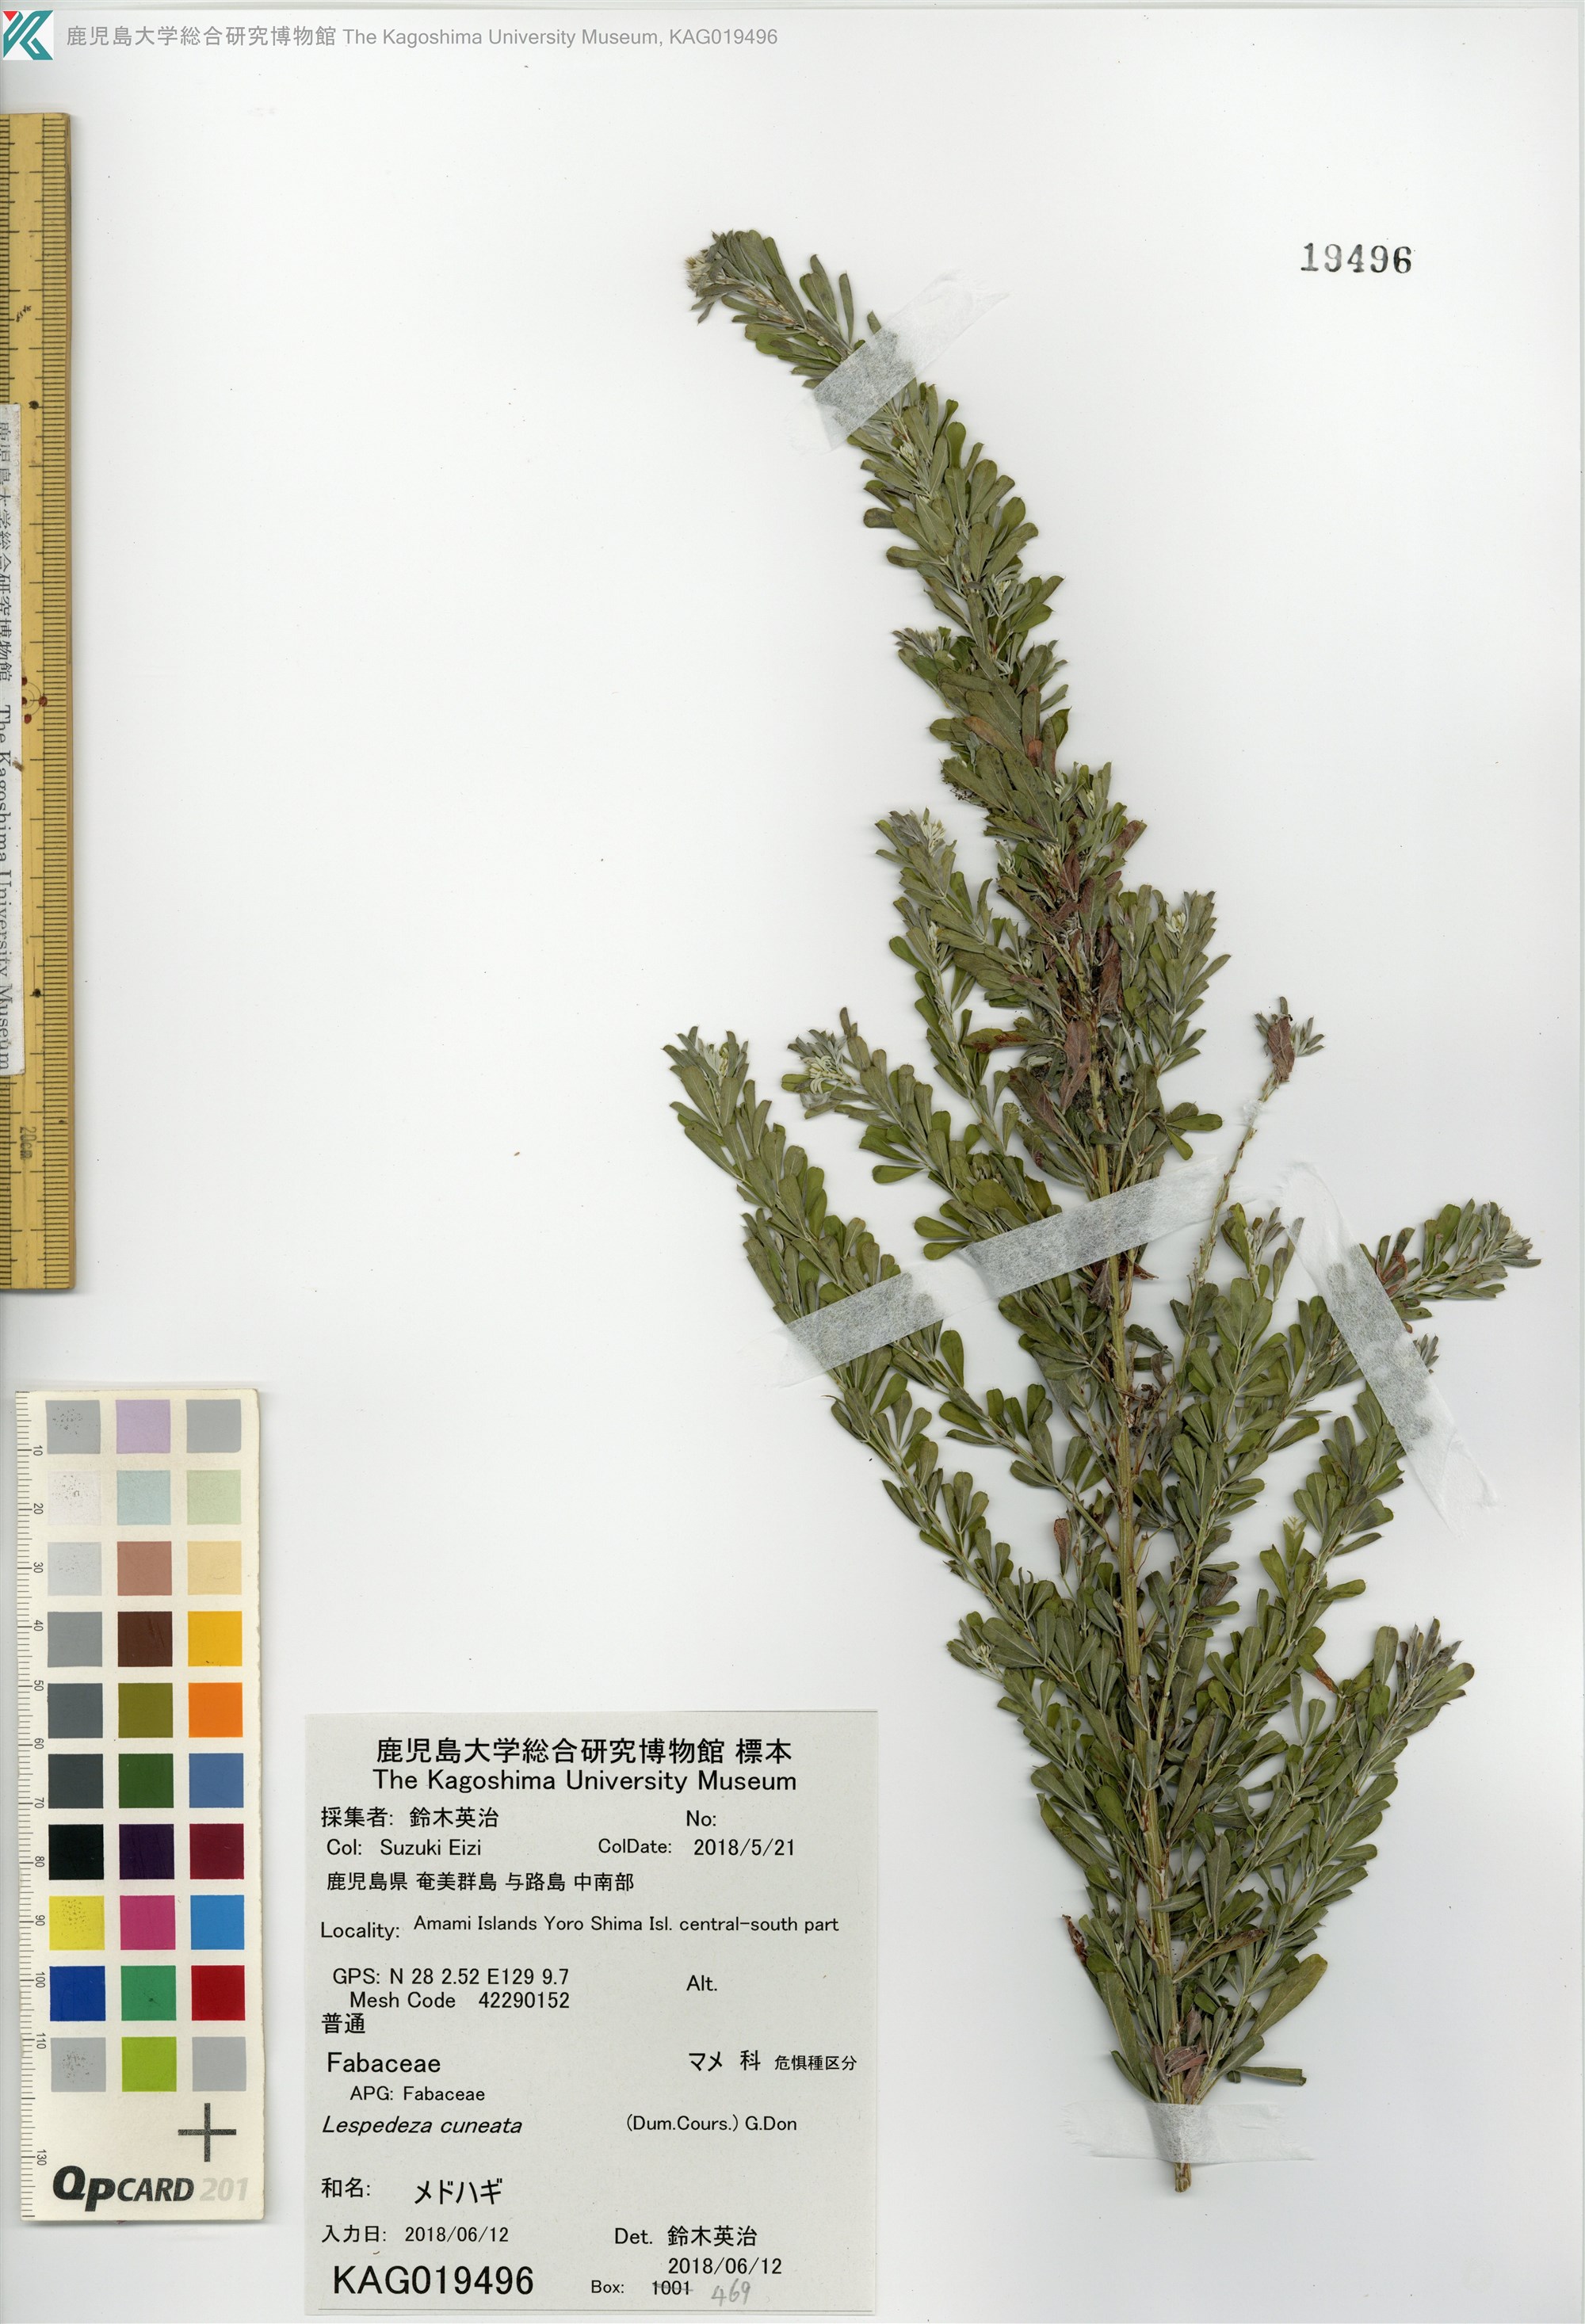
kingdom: Plantae
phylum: Tracheophyta
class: Magnoliopsida
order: Fabales
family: Fabaceae
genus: Lespedeza
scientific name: Lespedeza cuneata
